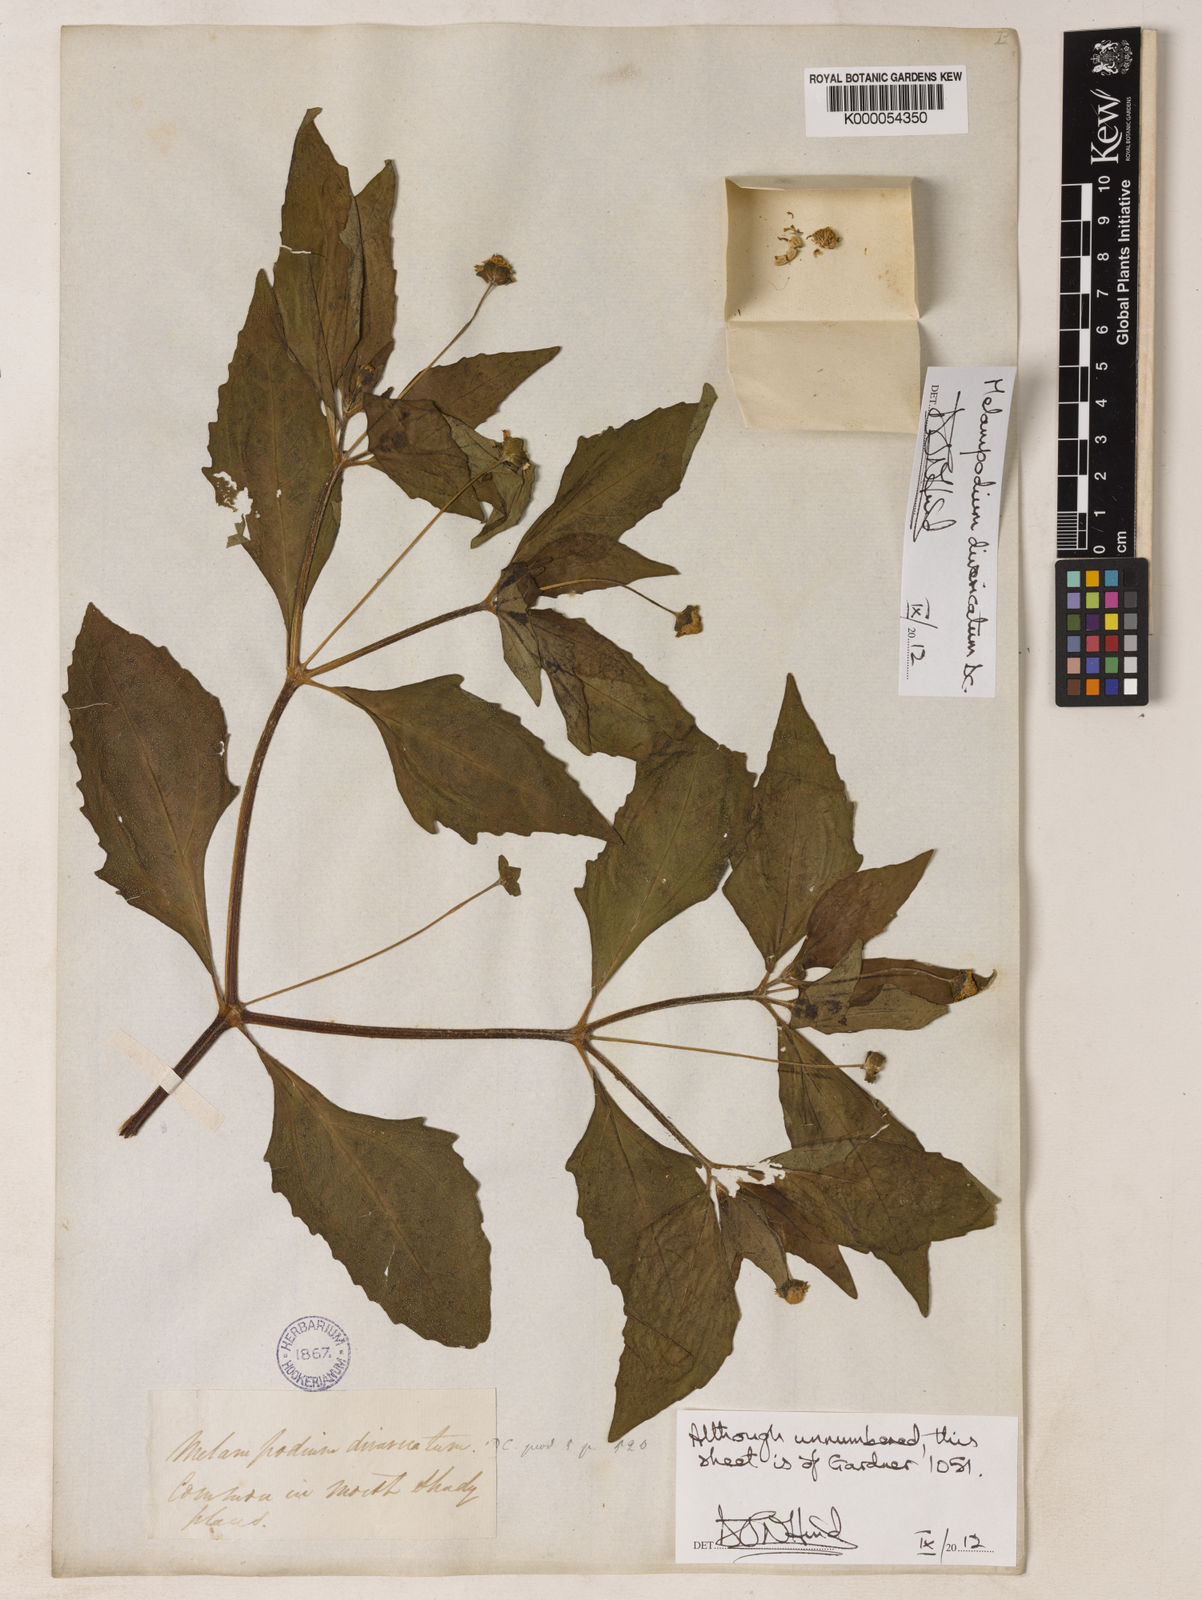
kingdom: Plantae
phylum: Tracheophyta
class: Magnoliopsida
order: Asterales
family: Asteraceae
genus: Melampodium
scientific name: Melampodium divaricatum
